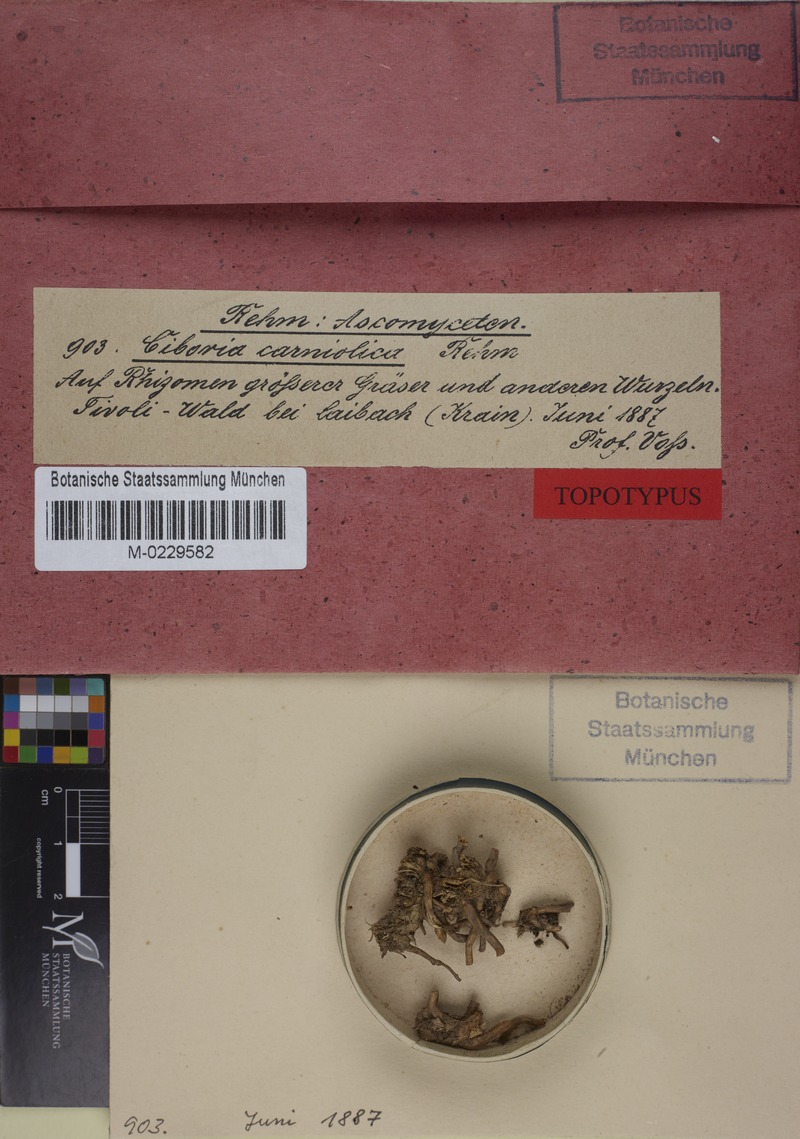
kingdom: Fungi
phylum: Ascomycota
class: Leotiomycetes
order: Helotiales
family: Sclerotiniaceae
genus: Ciboria
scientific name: Ciboria
